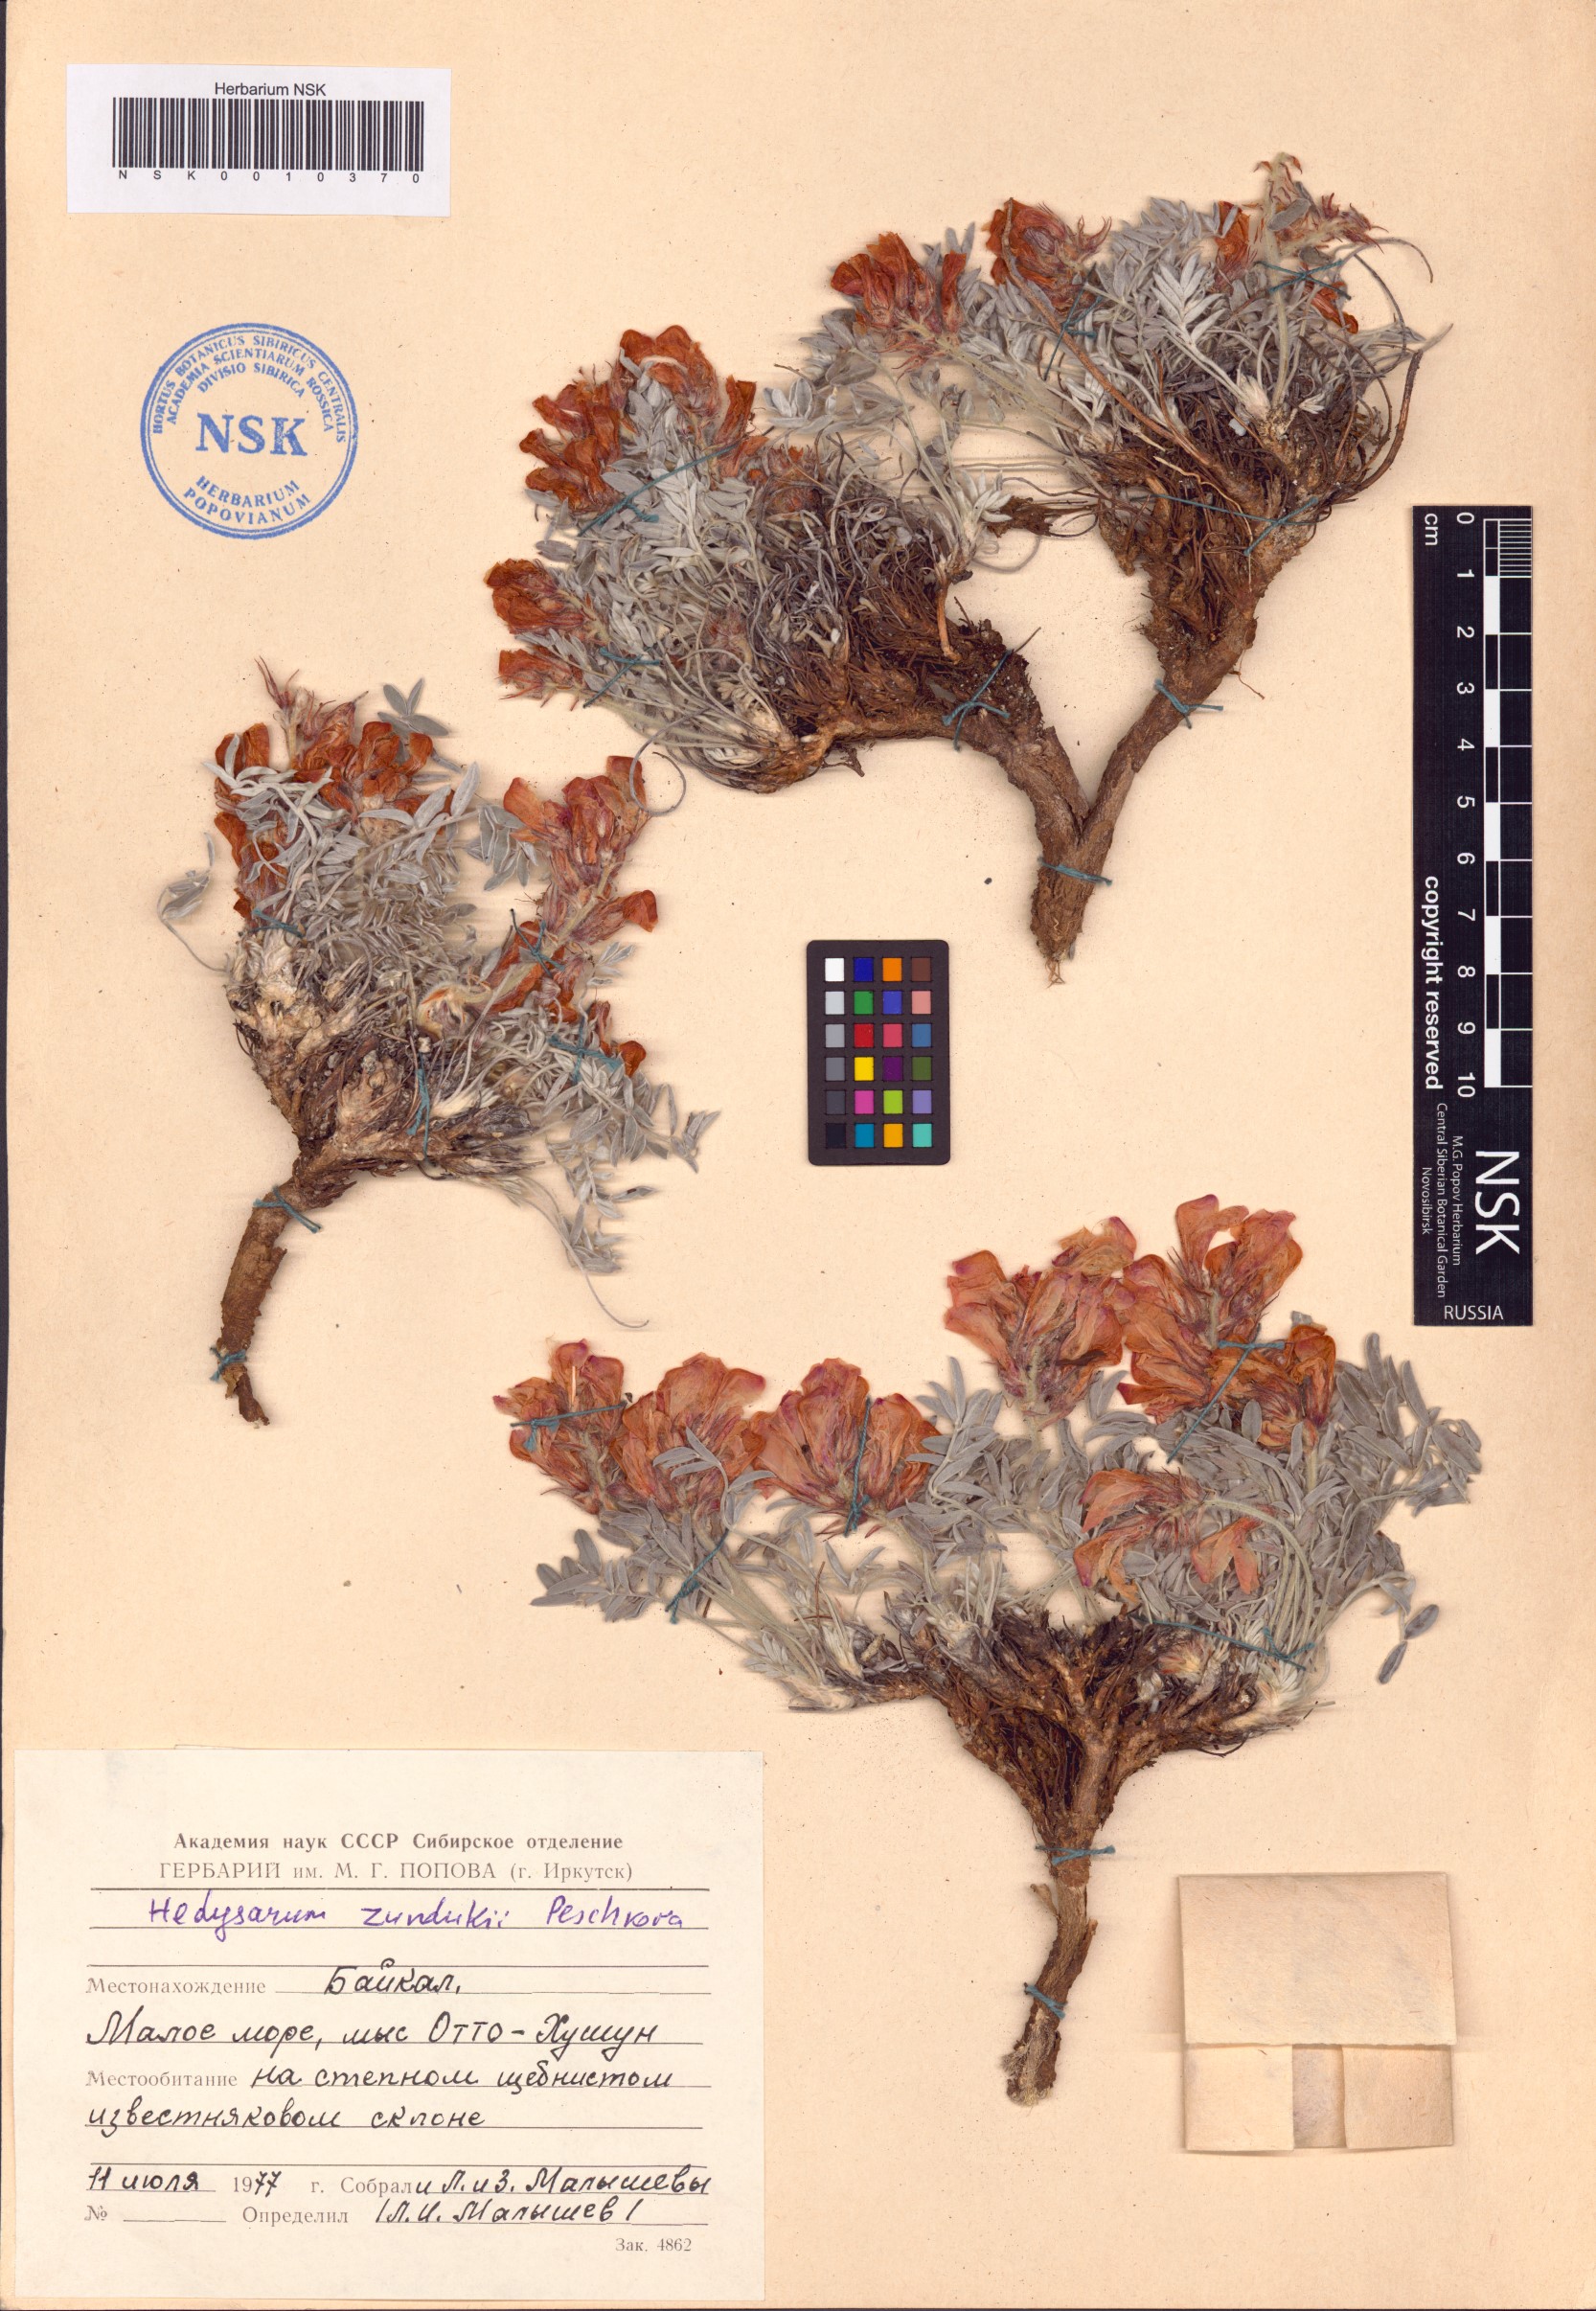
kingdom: Plantae
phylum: Tracheophyta
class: Magnoliopsida
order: Fabales
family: Fabaceae
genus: Hedysarum
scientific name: Hedysarum zundukii
